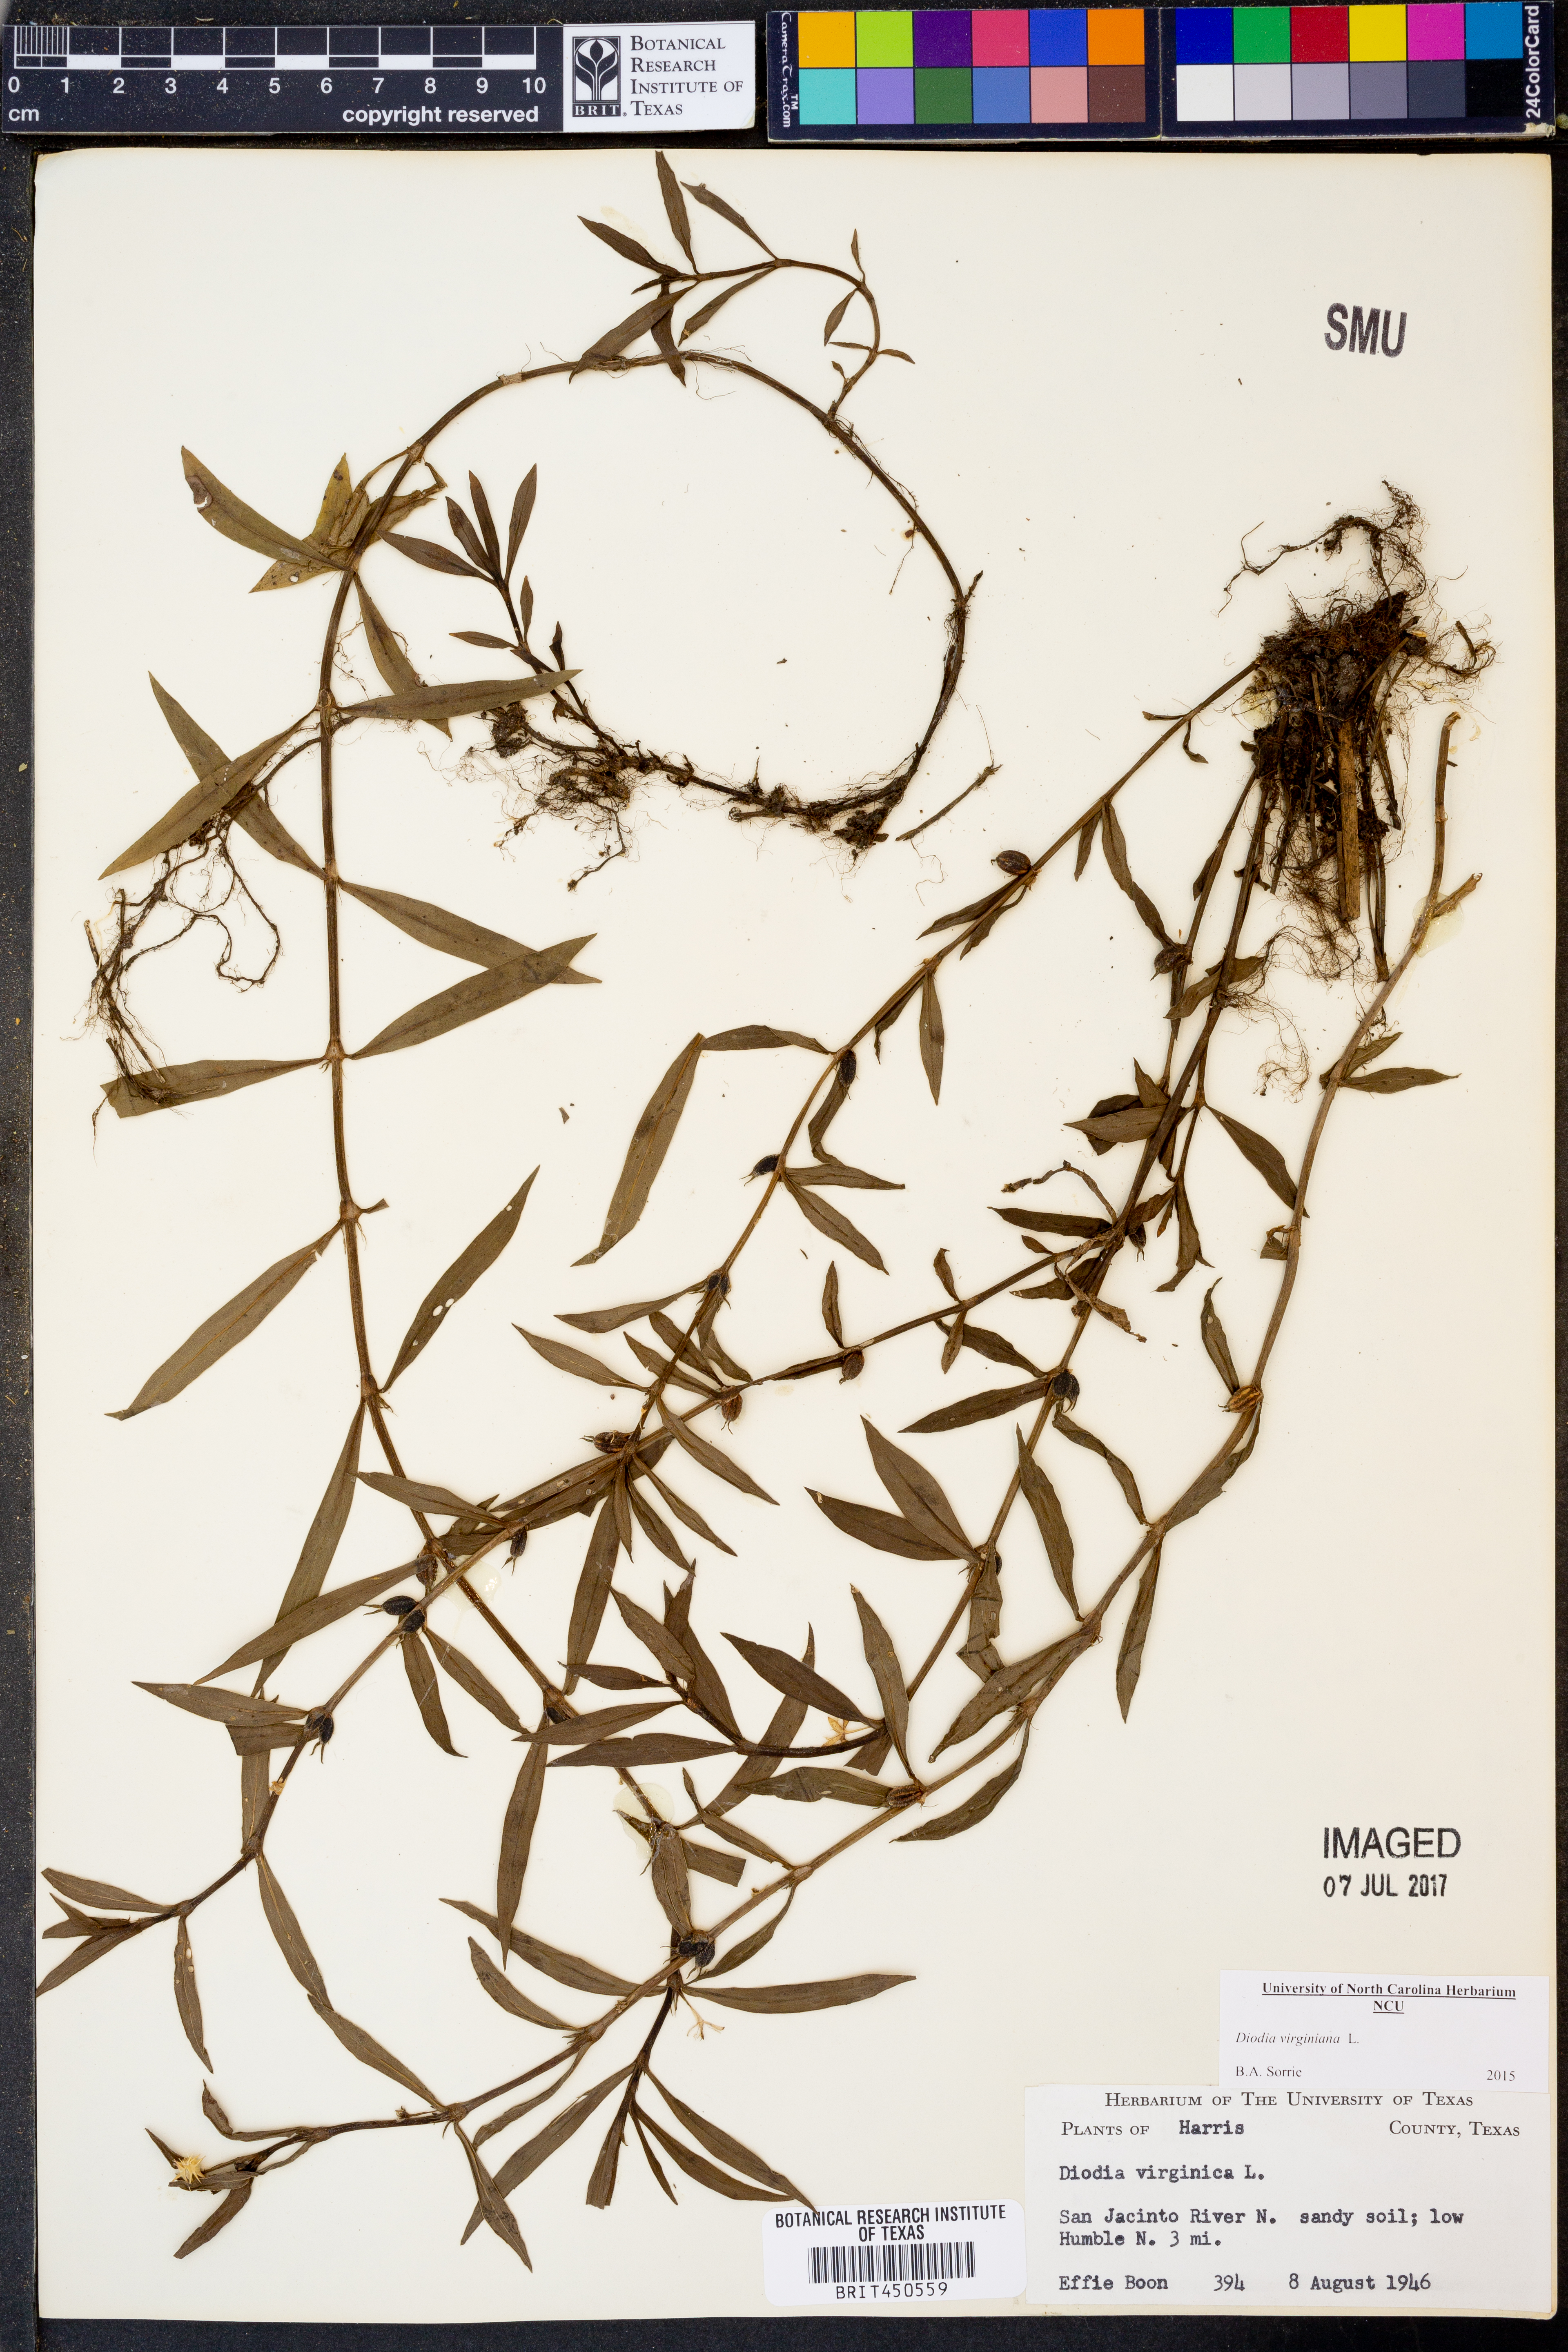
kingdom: Plantae
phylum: Tracheophyta
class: Magnoliopsida
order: Gentianales
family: Rubiaceae
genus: Diodia
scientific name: Diodia virginiana
